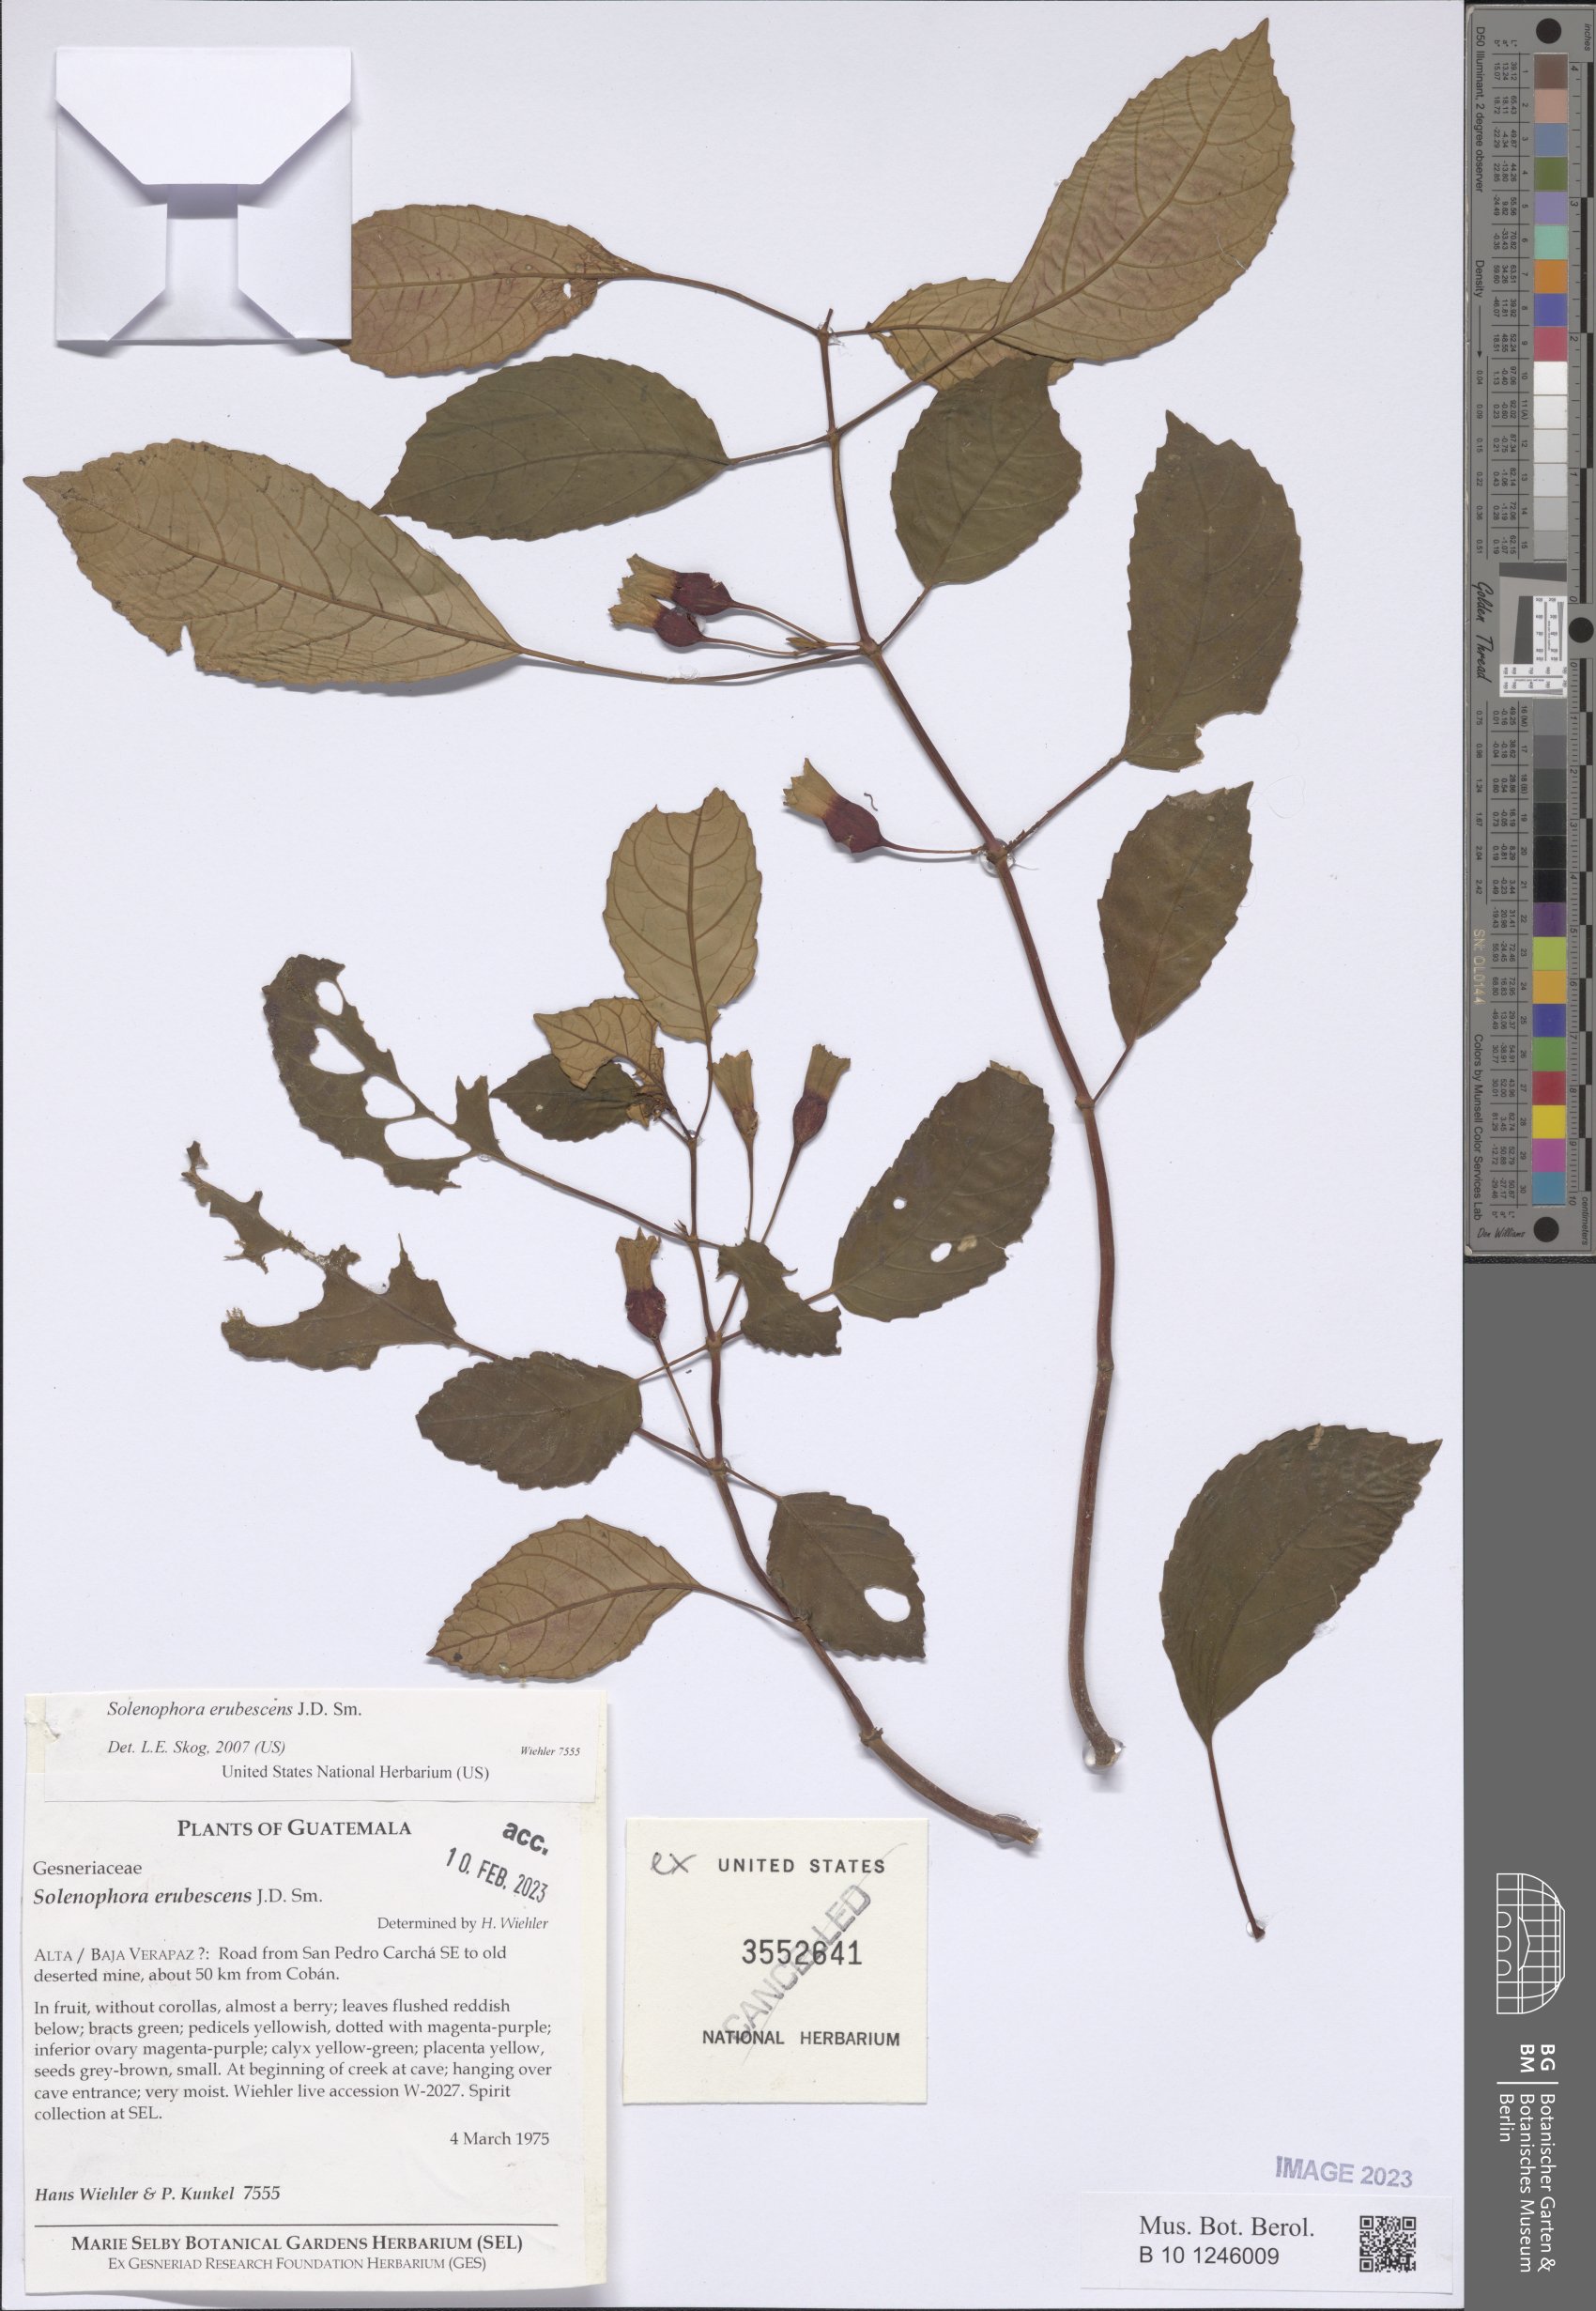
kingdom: Plantae
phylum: Tracheophyta
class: Magnoliopsida
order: Lamiales
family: Gesneriaceae
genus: Solenophora
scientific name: Solenophora erubescens
